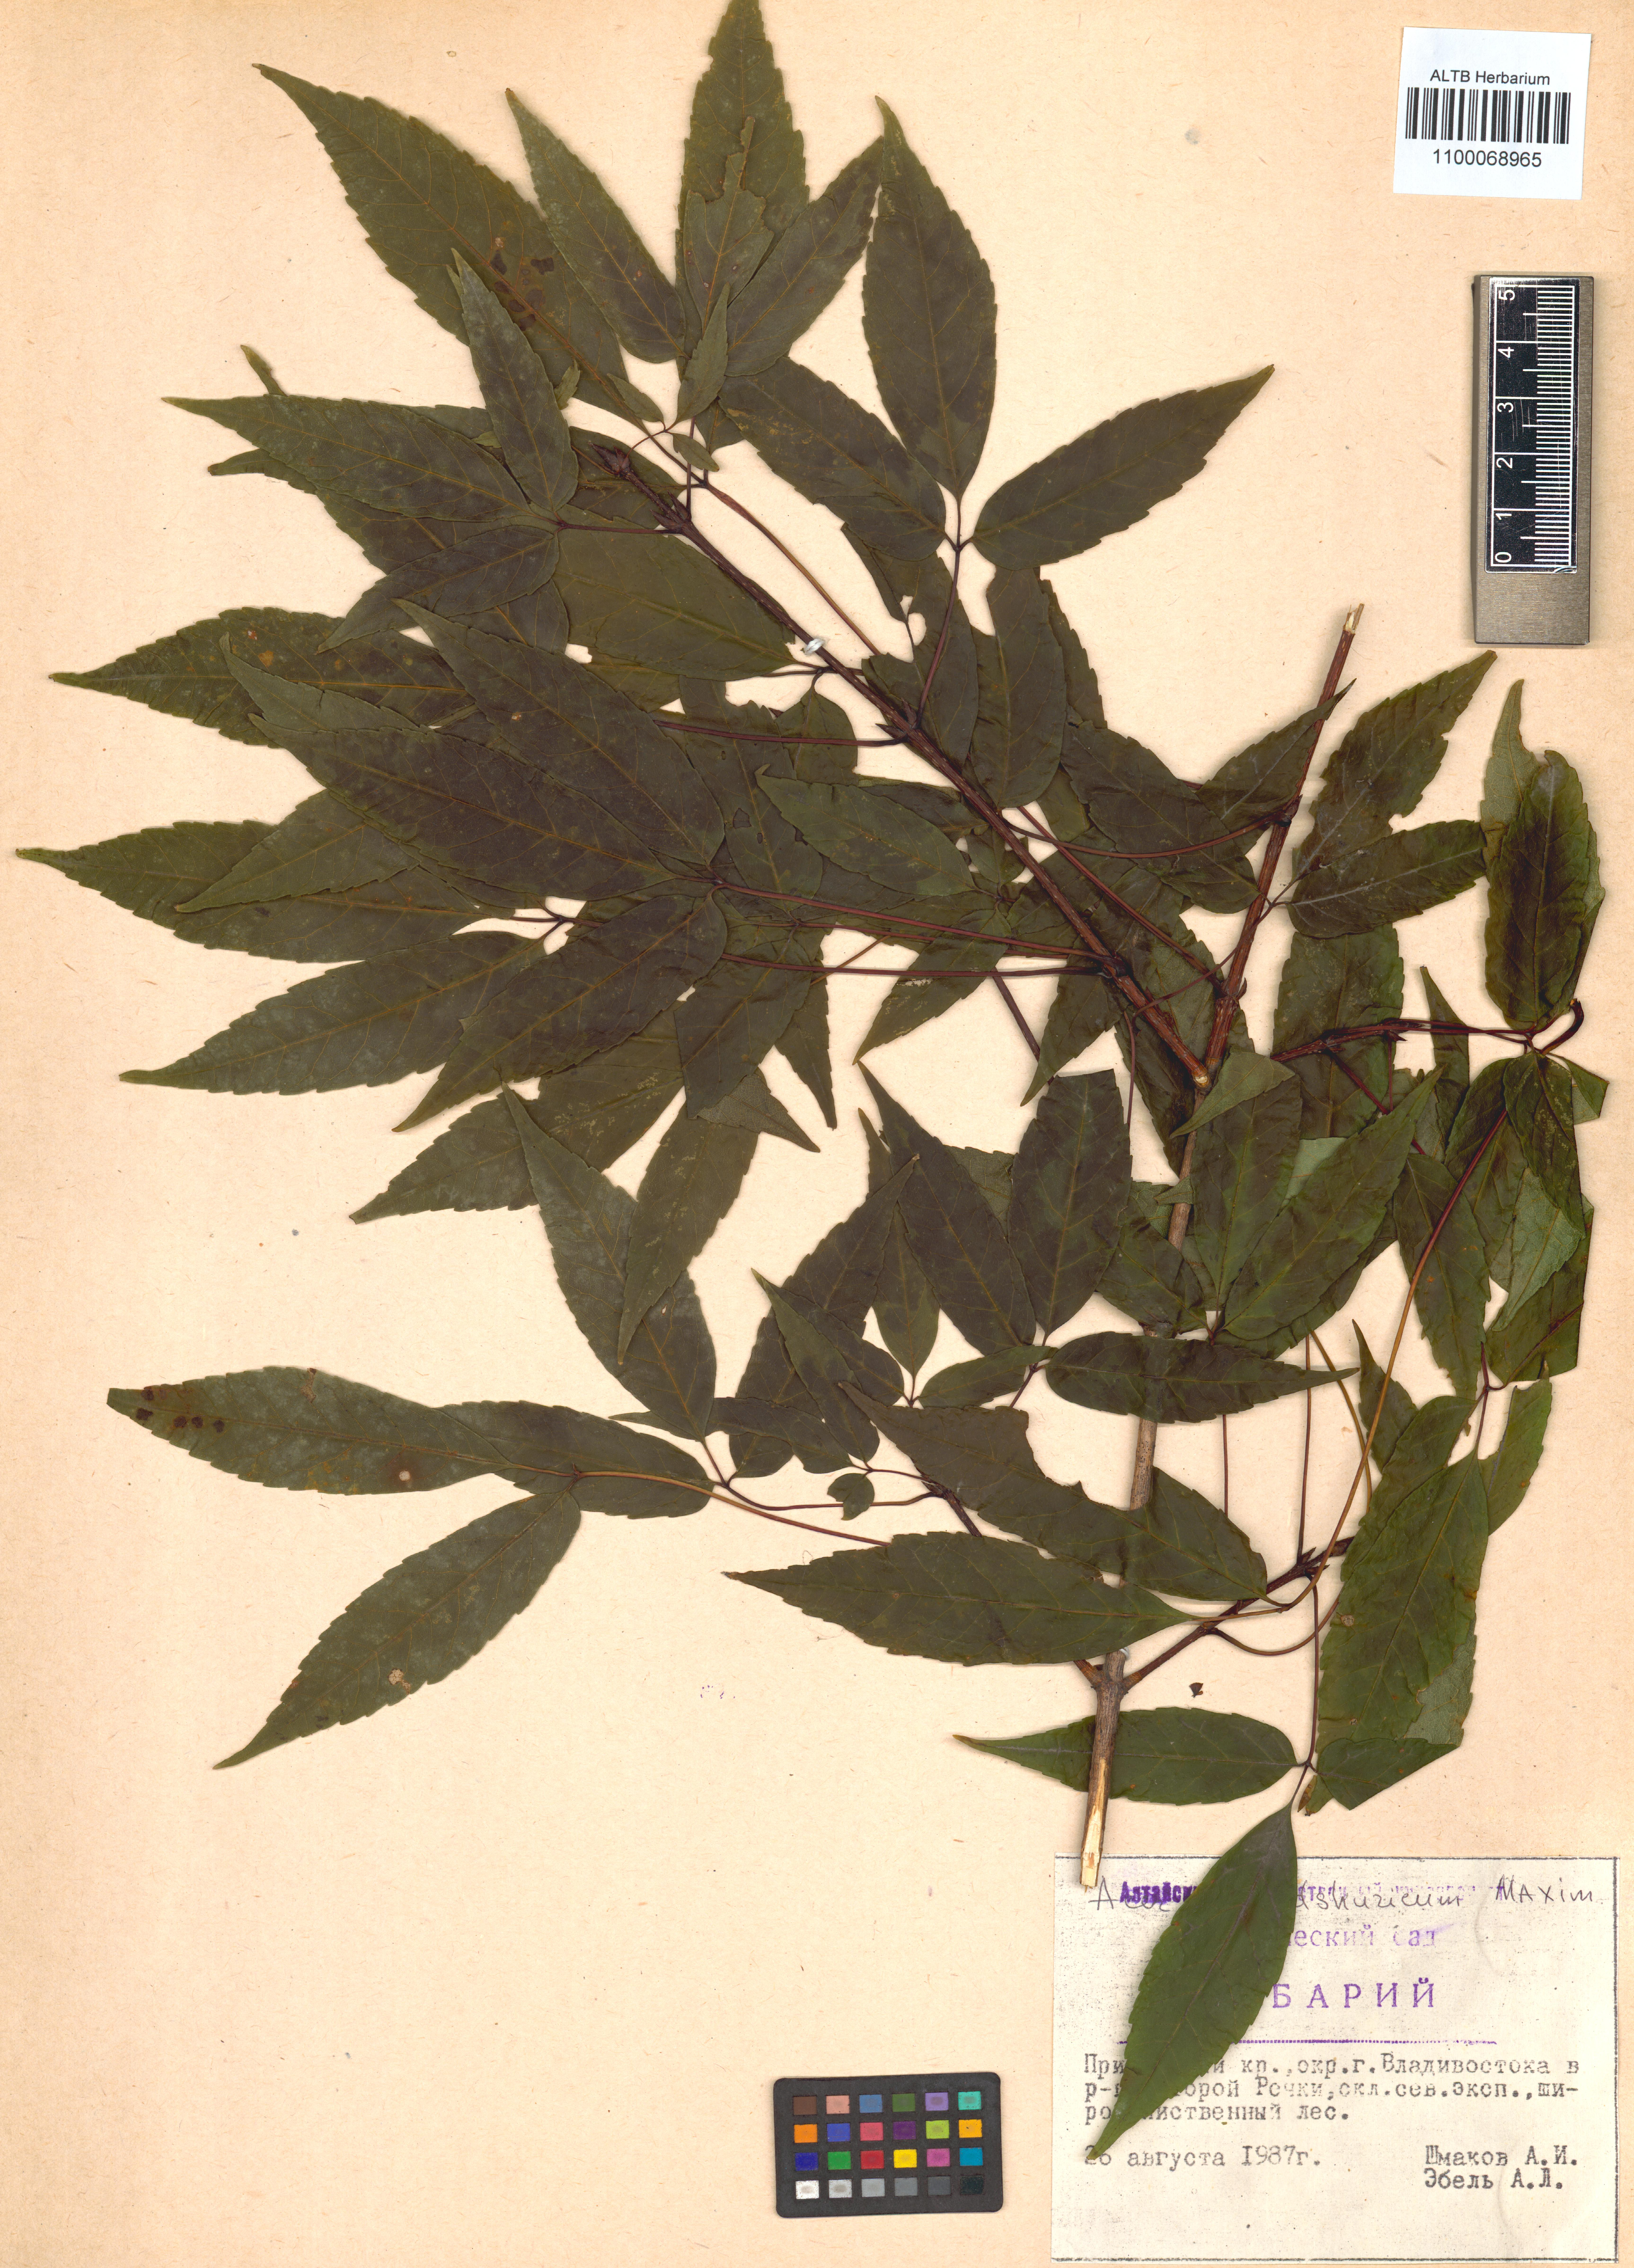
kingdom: Plantae
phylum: Tracheophyta
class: Magnoliopsida
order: Sapindales
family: Sapindaceae
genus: Acer
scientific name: Acer mandshuricum
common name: Manchurian maple
